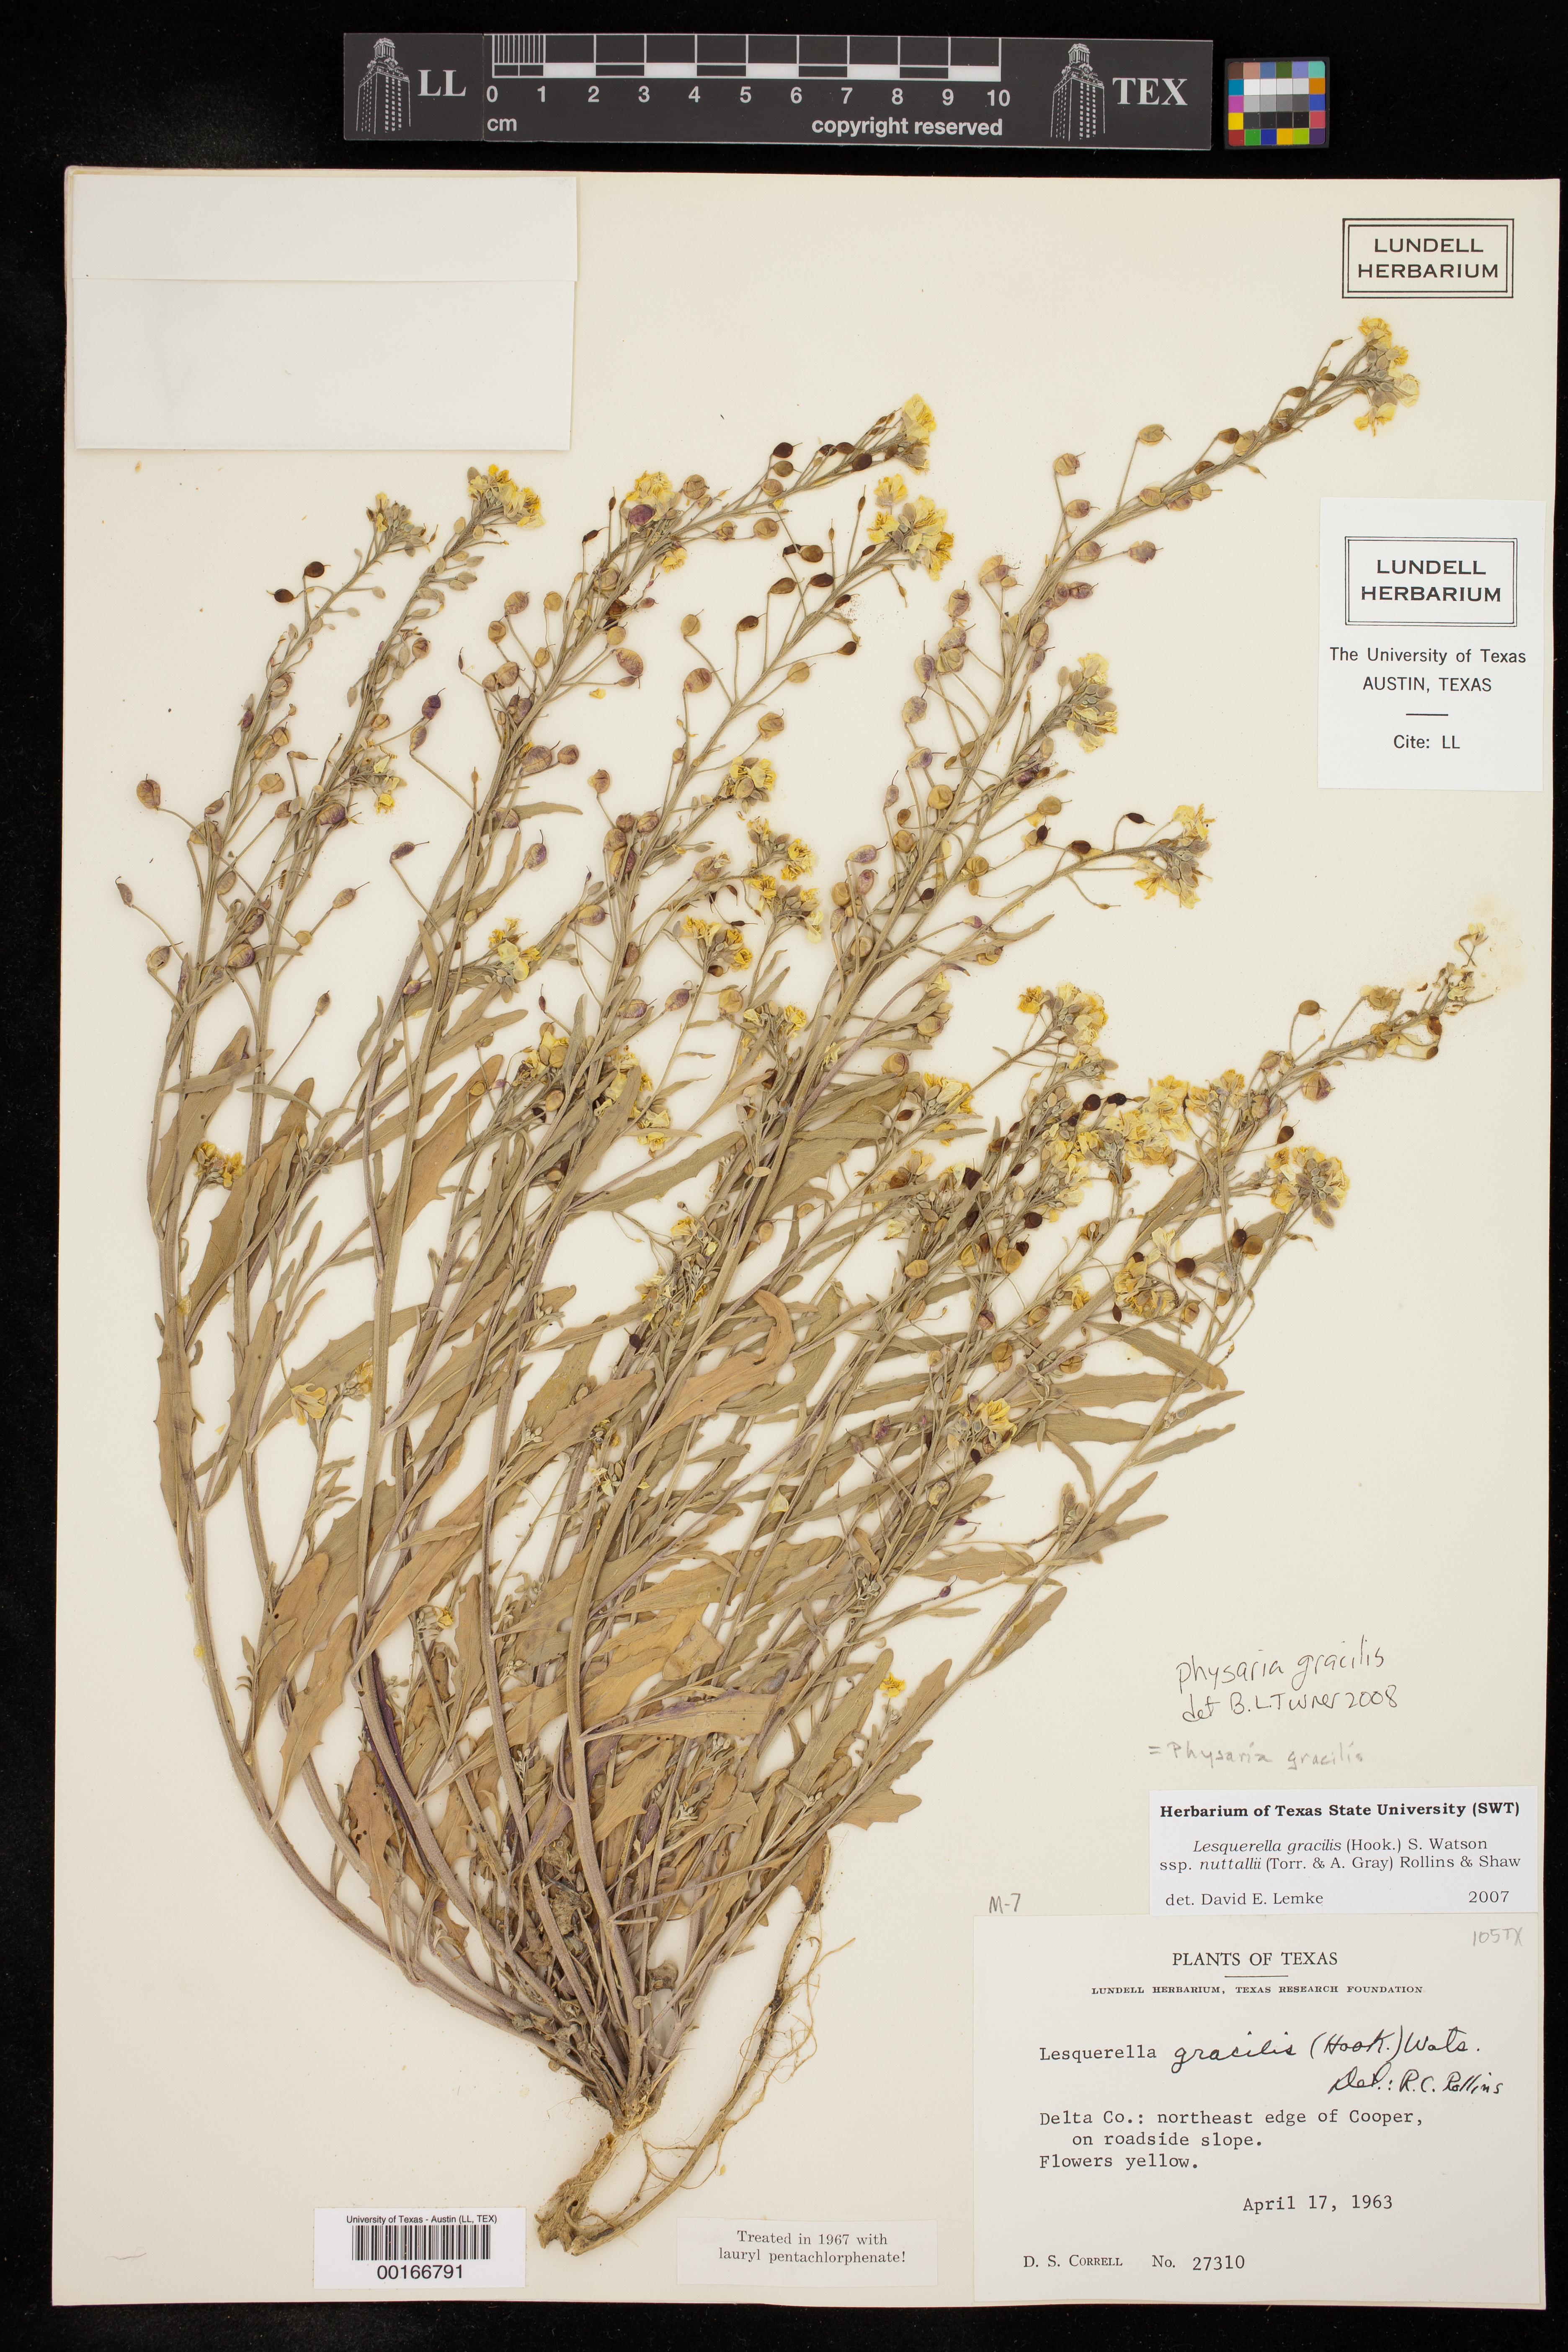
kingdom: Plantae
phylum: Tracheophyta
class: Magnoliopsida
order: Brassicales
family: Brassicaceae
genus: Physaria
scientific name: Physaria gracilis
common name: Spreading bladderpod
